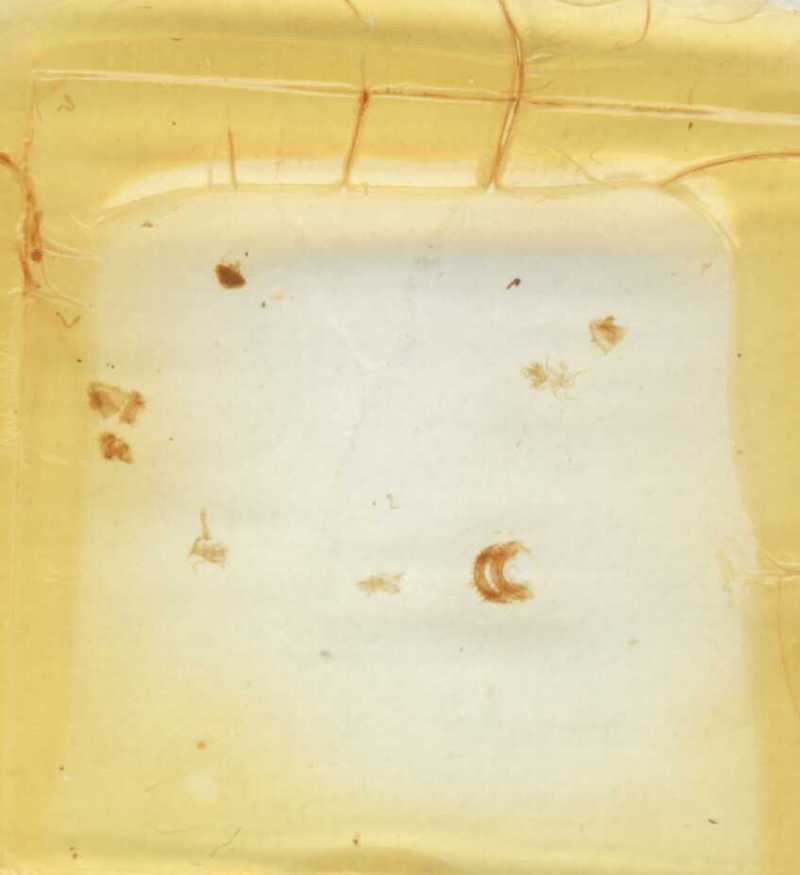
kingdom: Animalia
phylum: Arthropoda
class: Diplopoda
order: Glomerida
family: Glomeridae
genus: Adenomeris
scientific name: Adenomeris hispida
